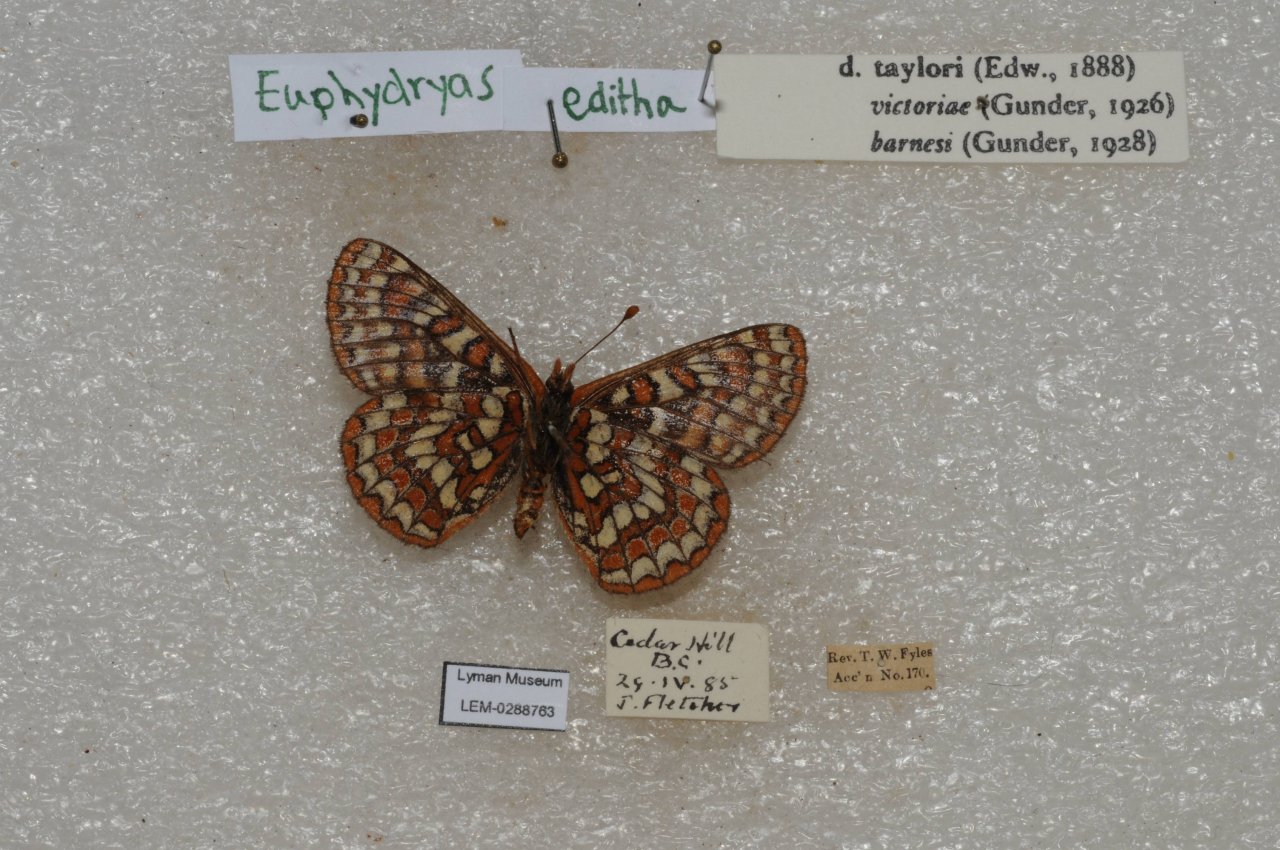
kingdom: Animalia
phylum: Arthropoda
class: Insecta
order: Lepidoptera
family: Lycaenidae
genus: Lycaena
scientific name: Lycaena editha
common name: Edith's Copper
